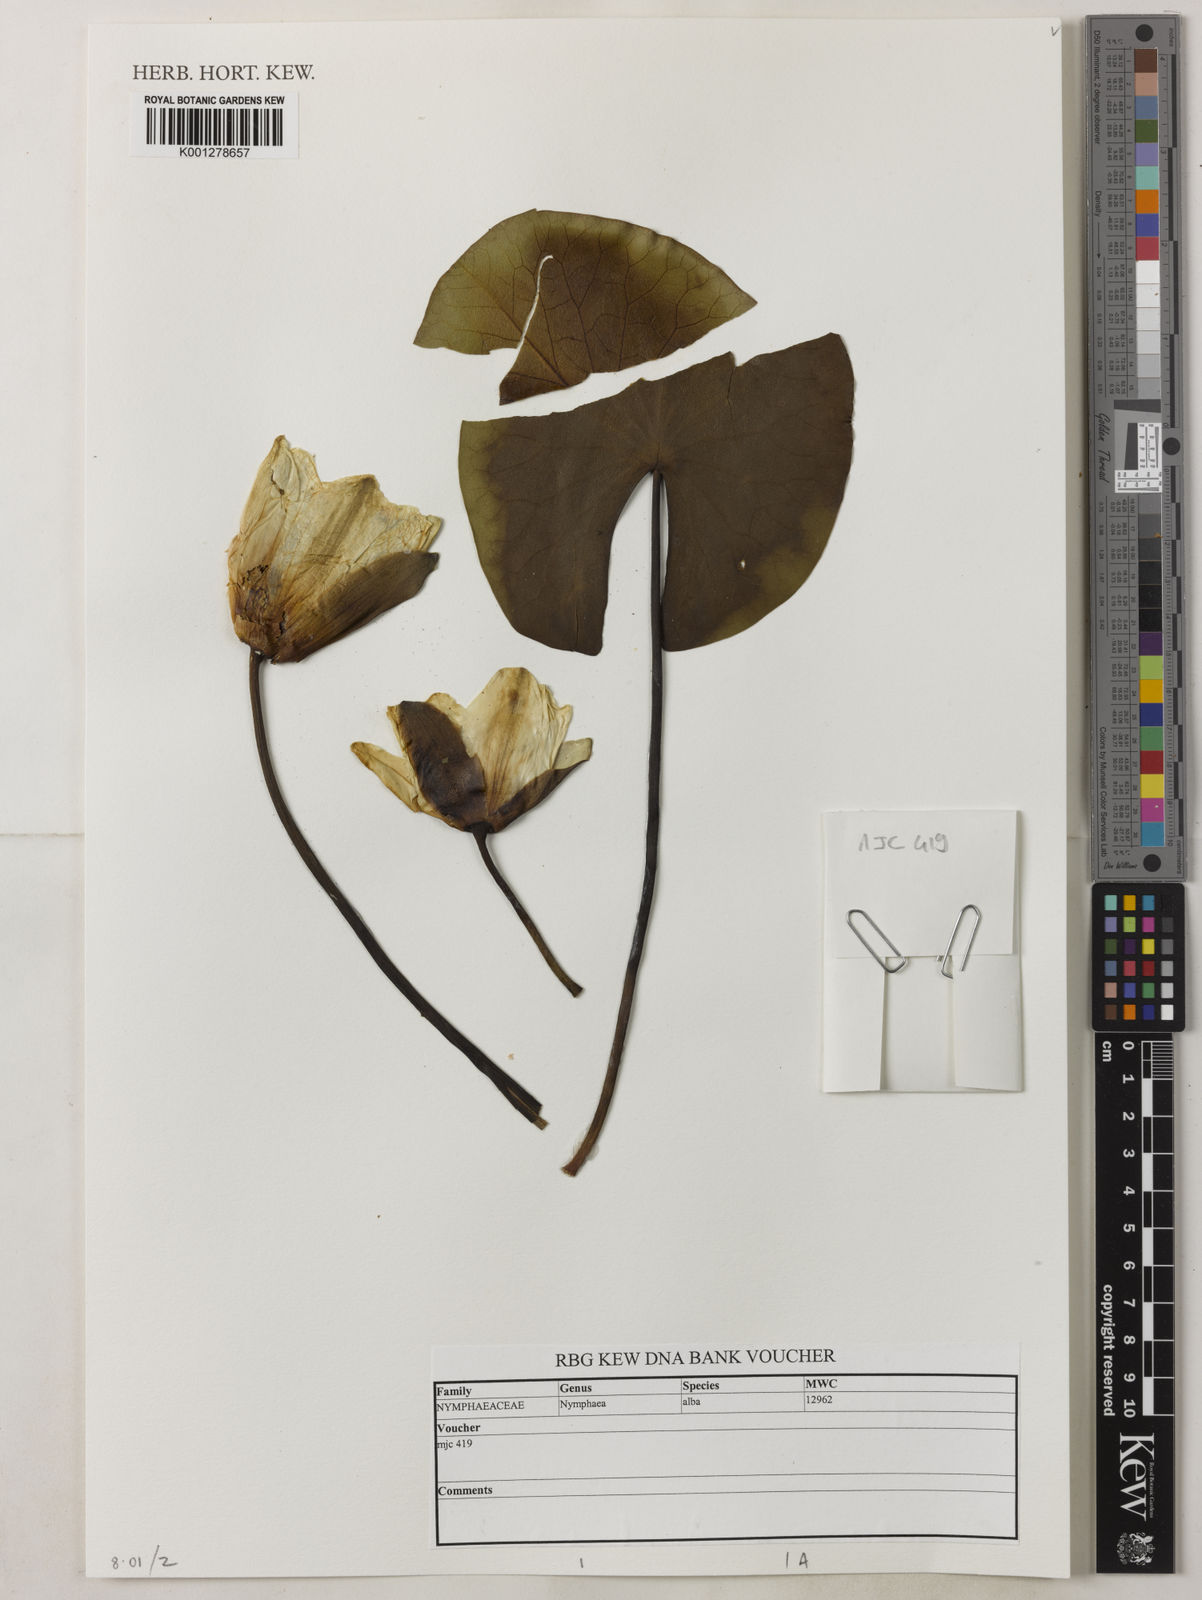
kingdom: Plantae
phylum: Tracheophyta
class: Magnoliopsida
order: Nymphaeales
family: Nymphaeaceae
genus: Nymphaea
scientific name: Nymphaea alba
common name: White water-lily
